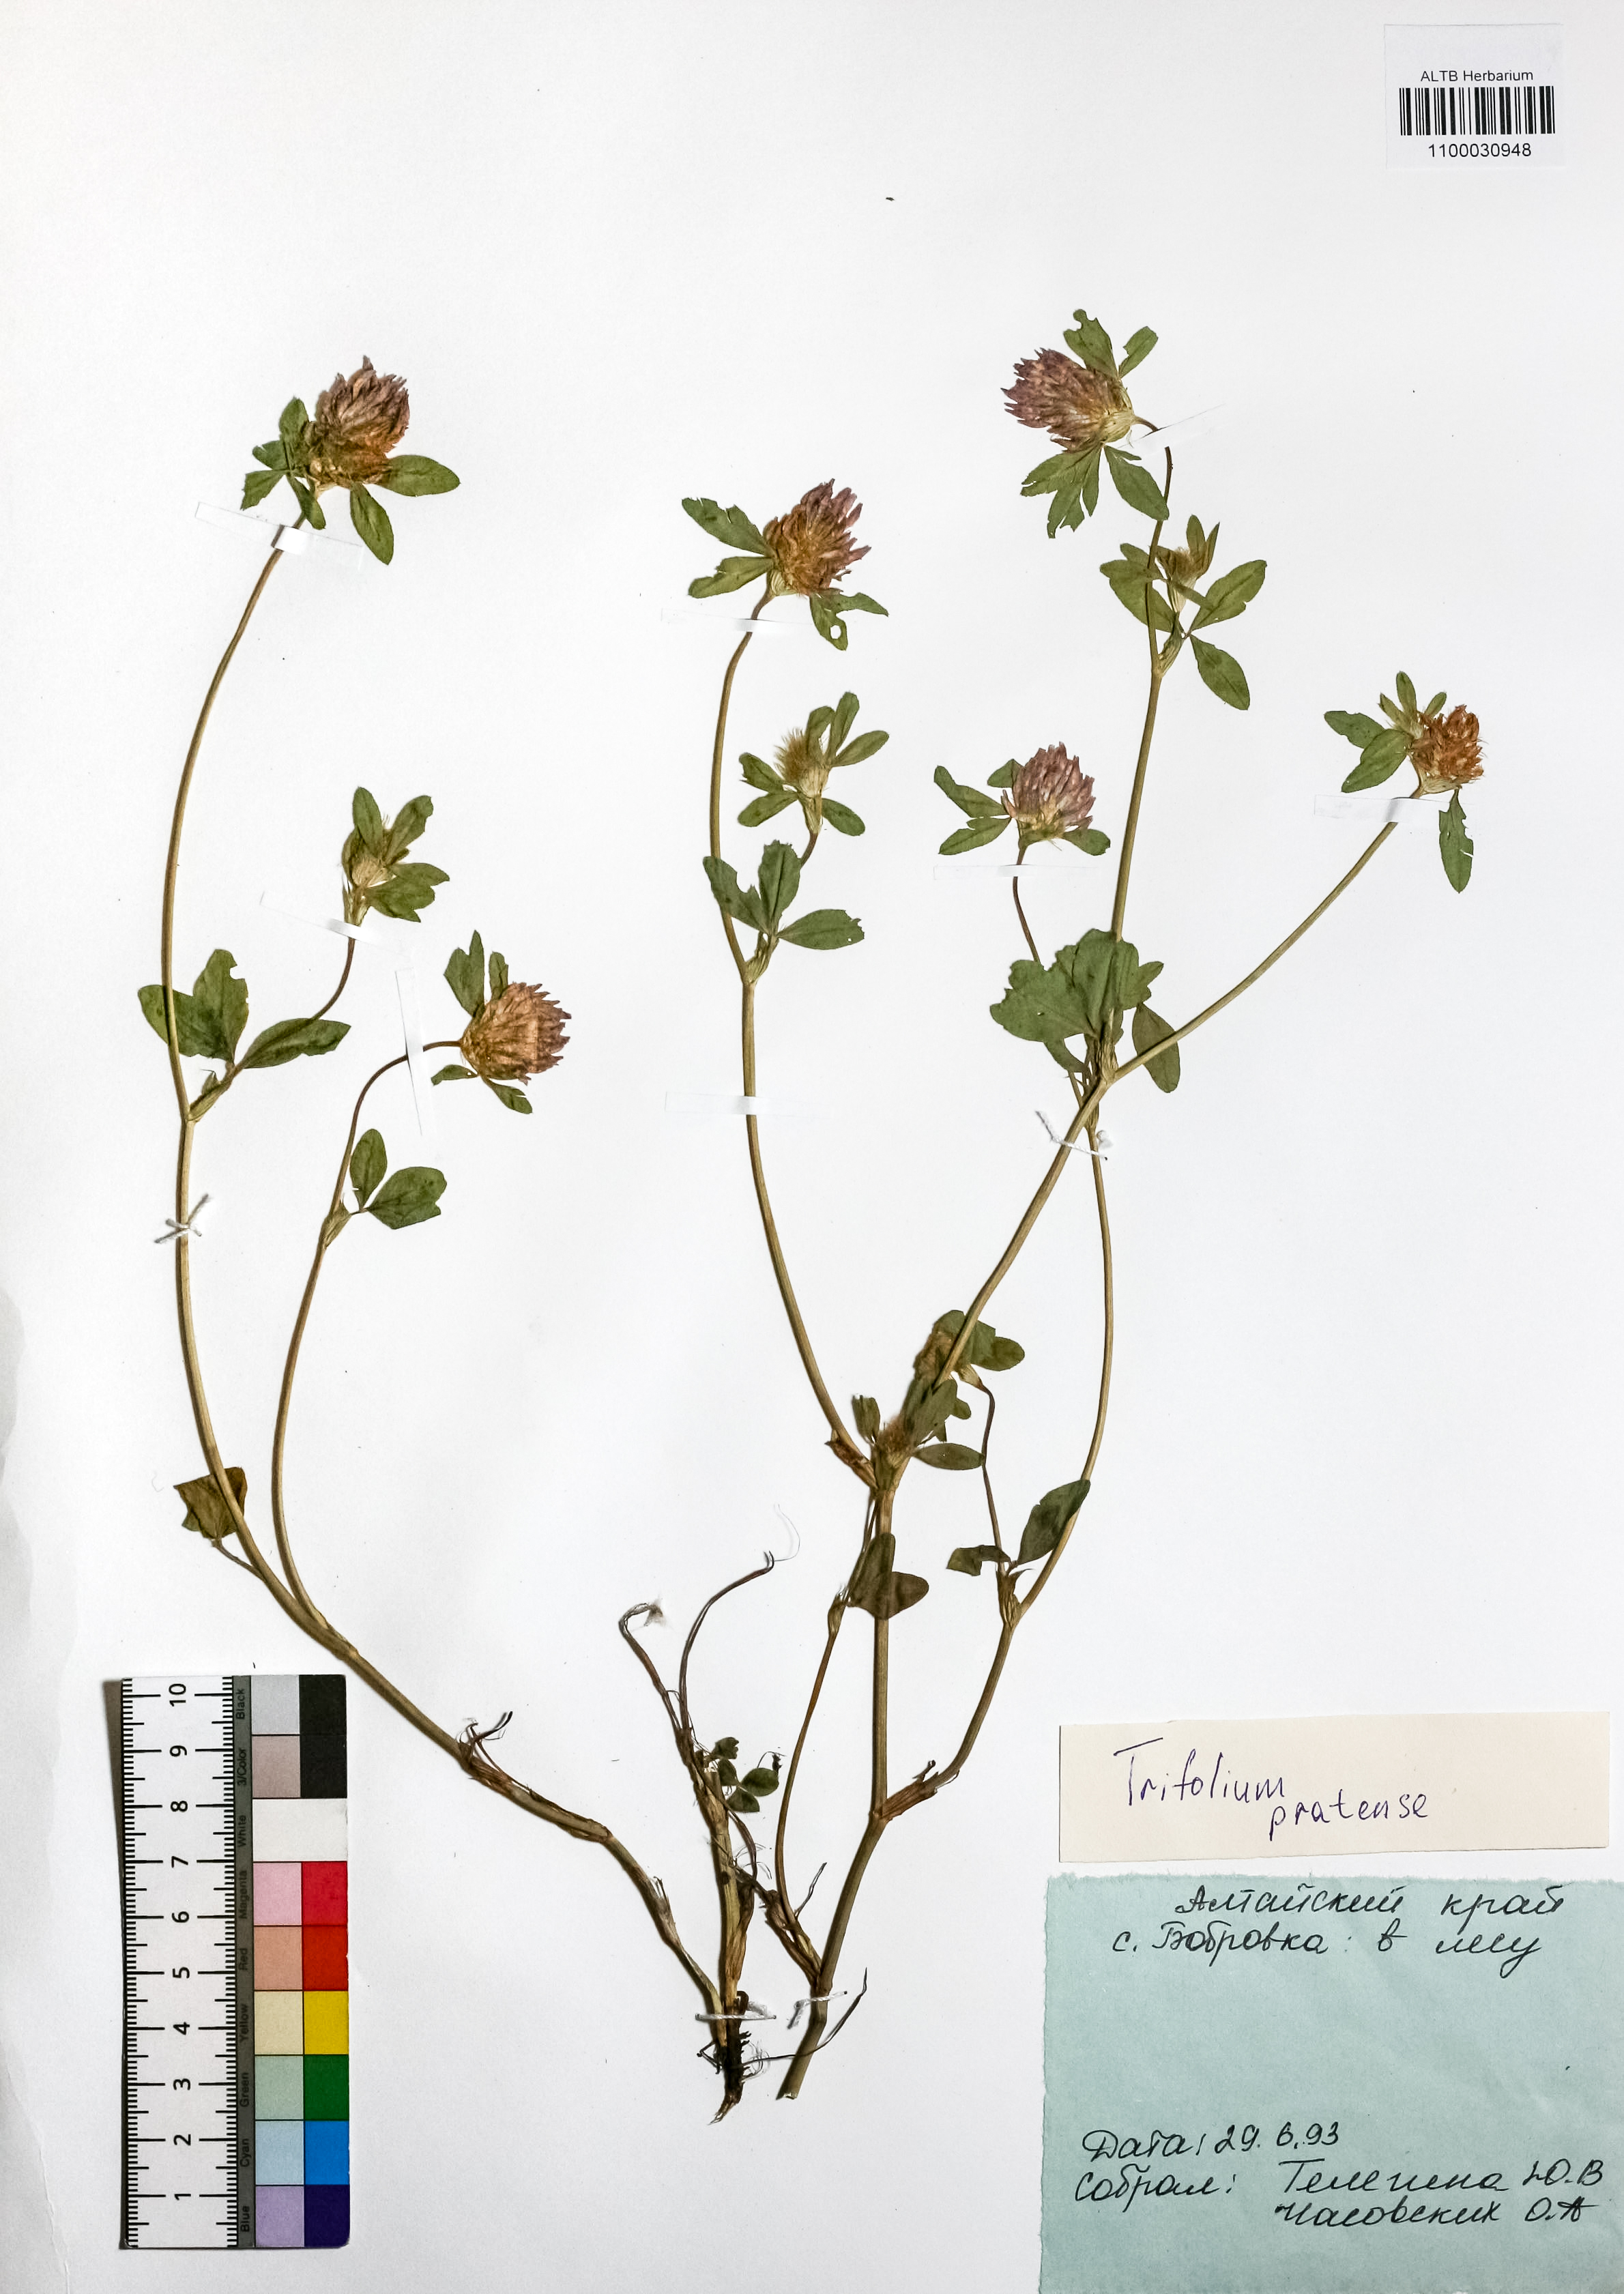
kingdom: Plantae
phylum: Tracheophyta
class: Magnoliopsida
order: Fabales
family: Fabaceae
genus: Trifolium
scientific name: Trifolium pratense
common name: Red clover
